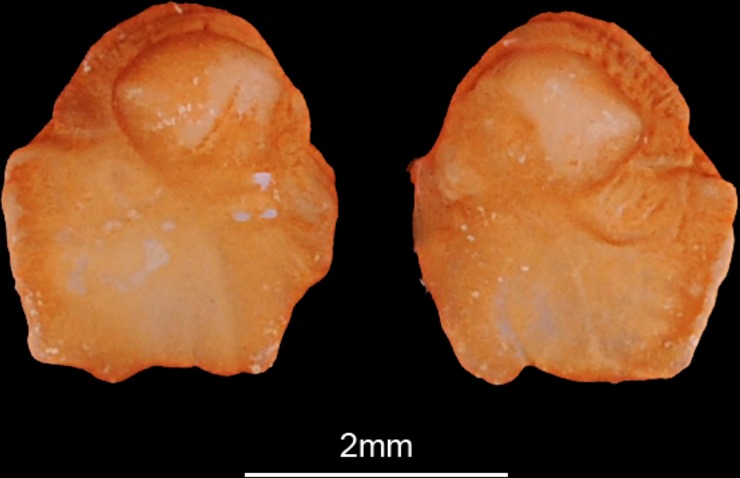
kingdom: Animalia
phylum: Chordata
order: Cypriniformes
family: Cyprinidae
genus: Rutilus
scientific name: Rutilus rutilus
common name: Roach
